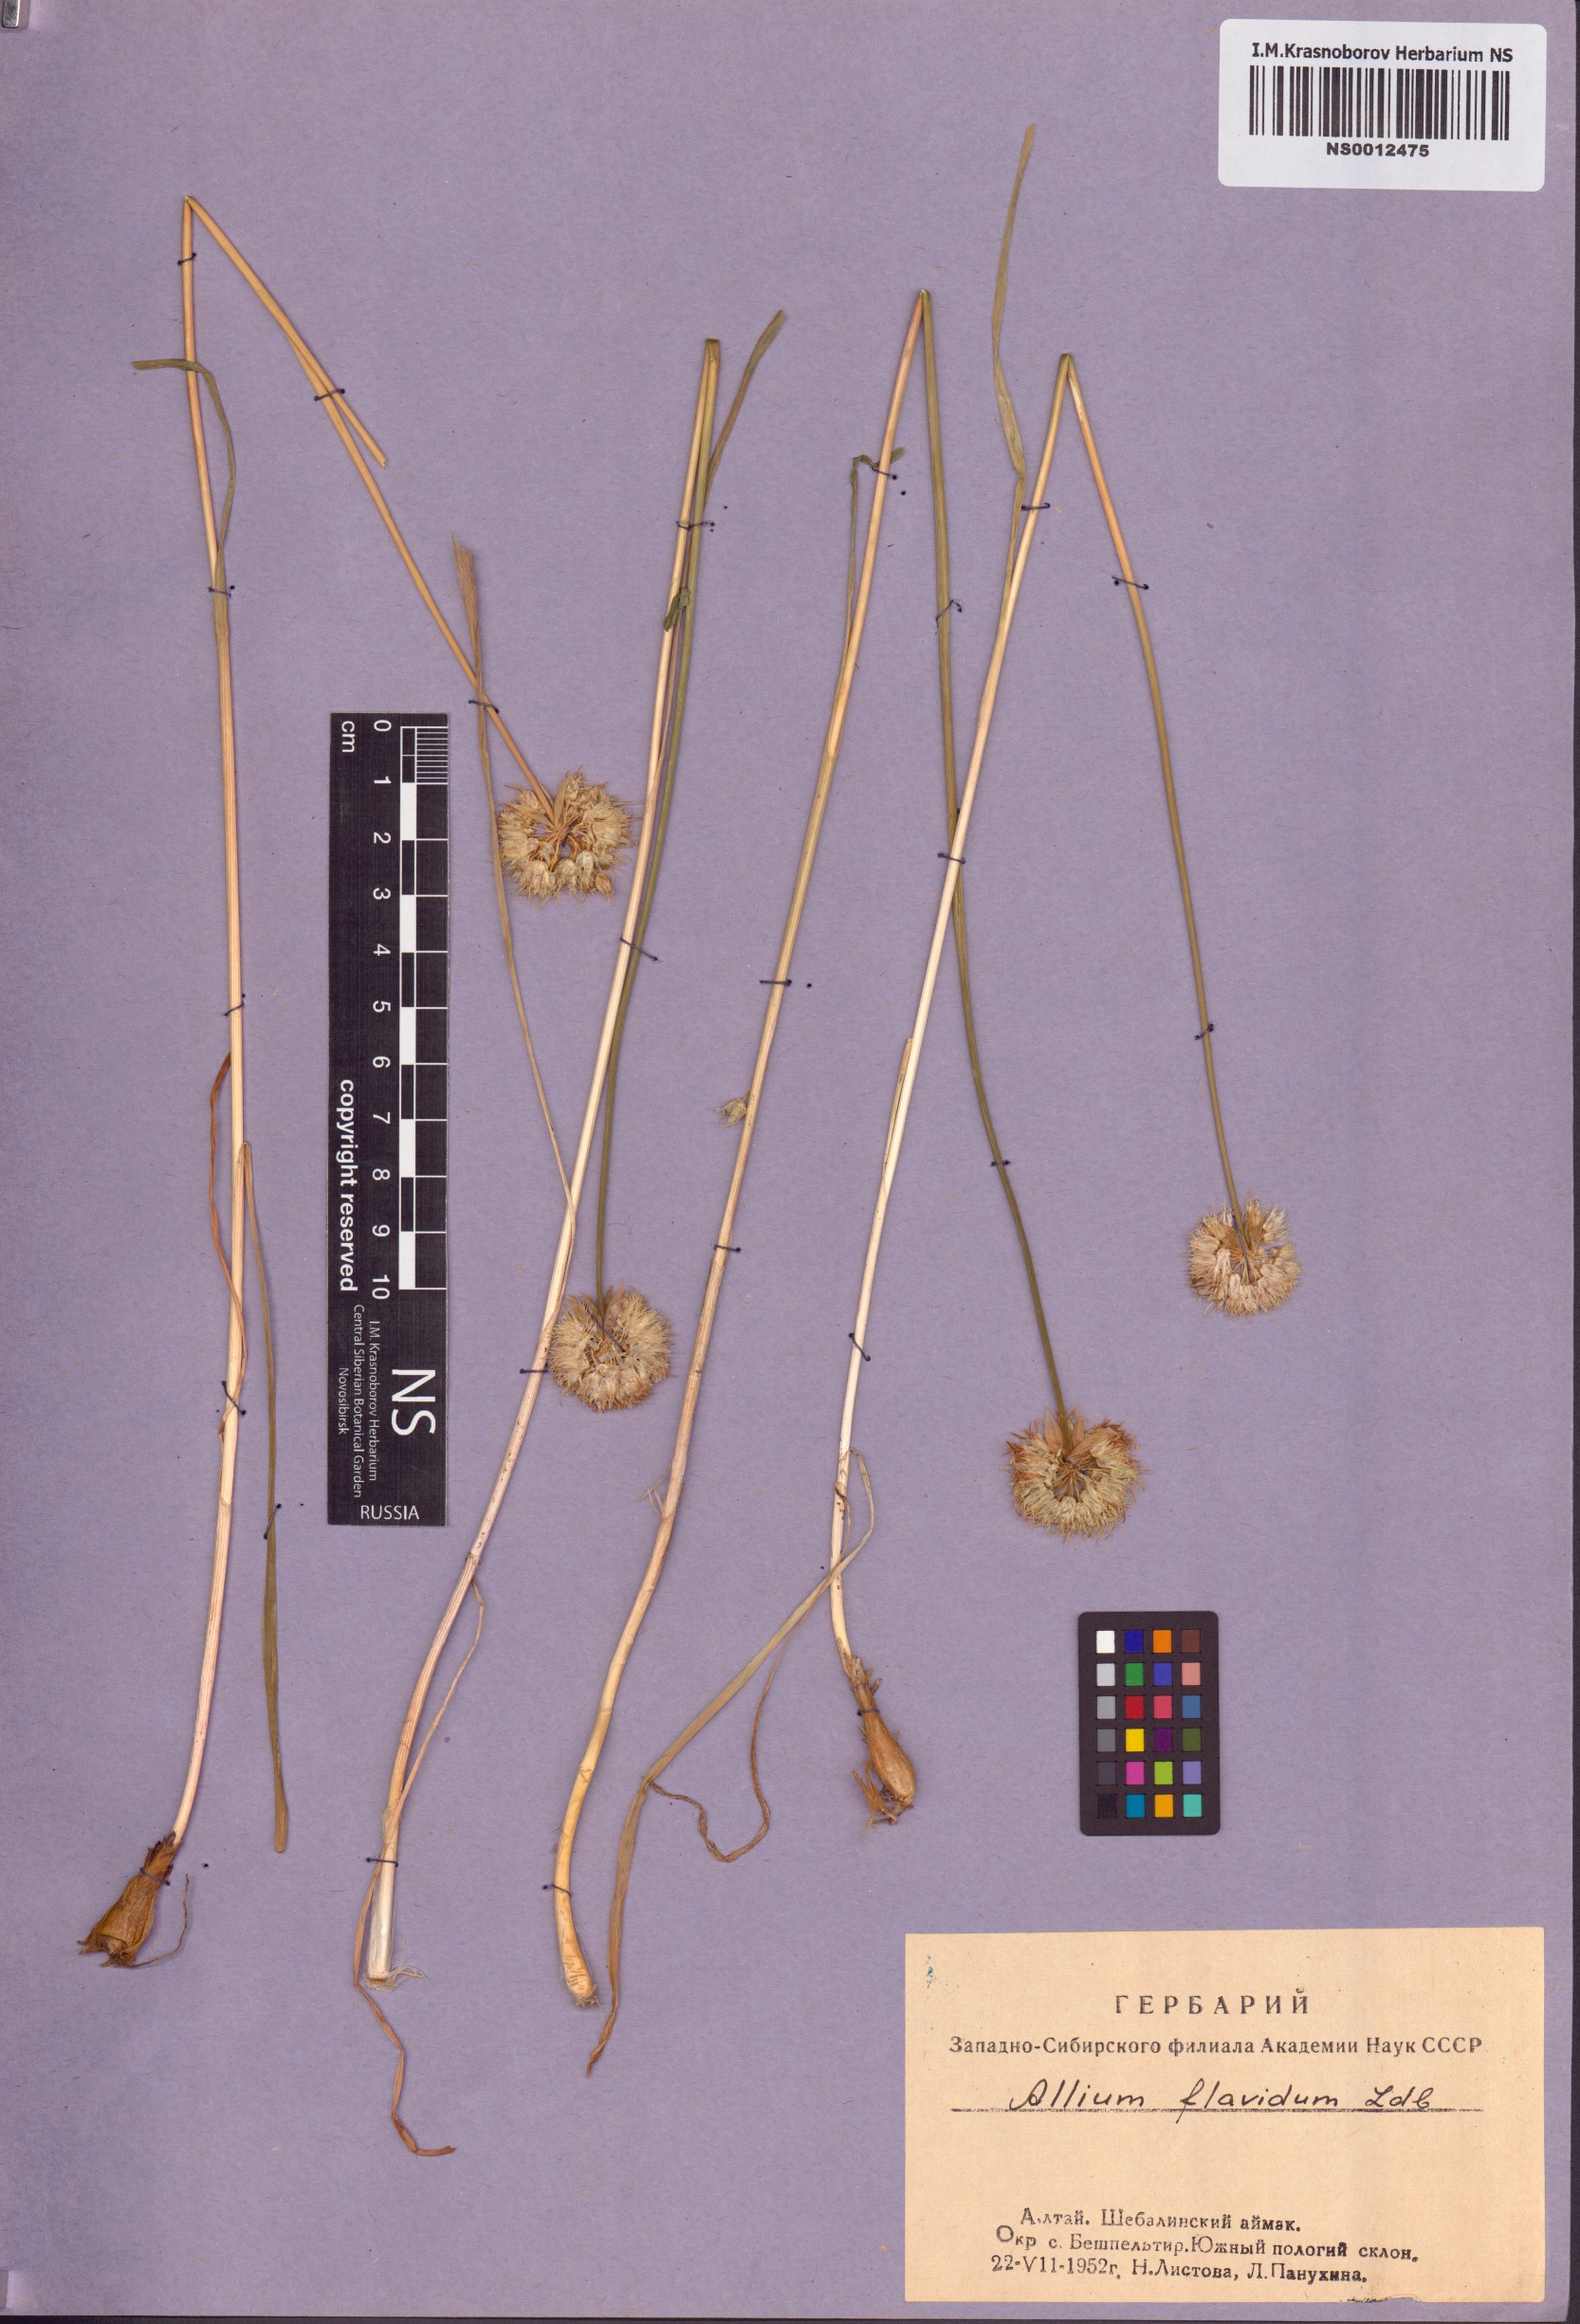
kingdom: Plantae
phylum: Tracheophyta
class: Liliopsida
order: Asparagales
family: Amaryllidaceae
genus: Allium
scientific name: Allium flavidum
